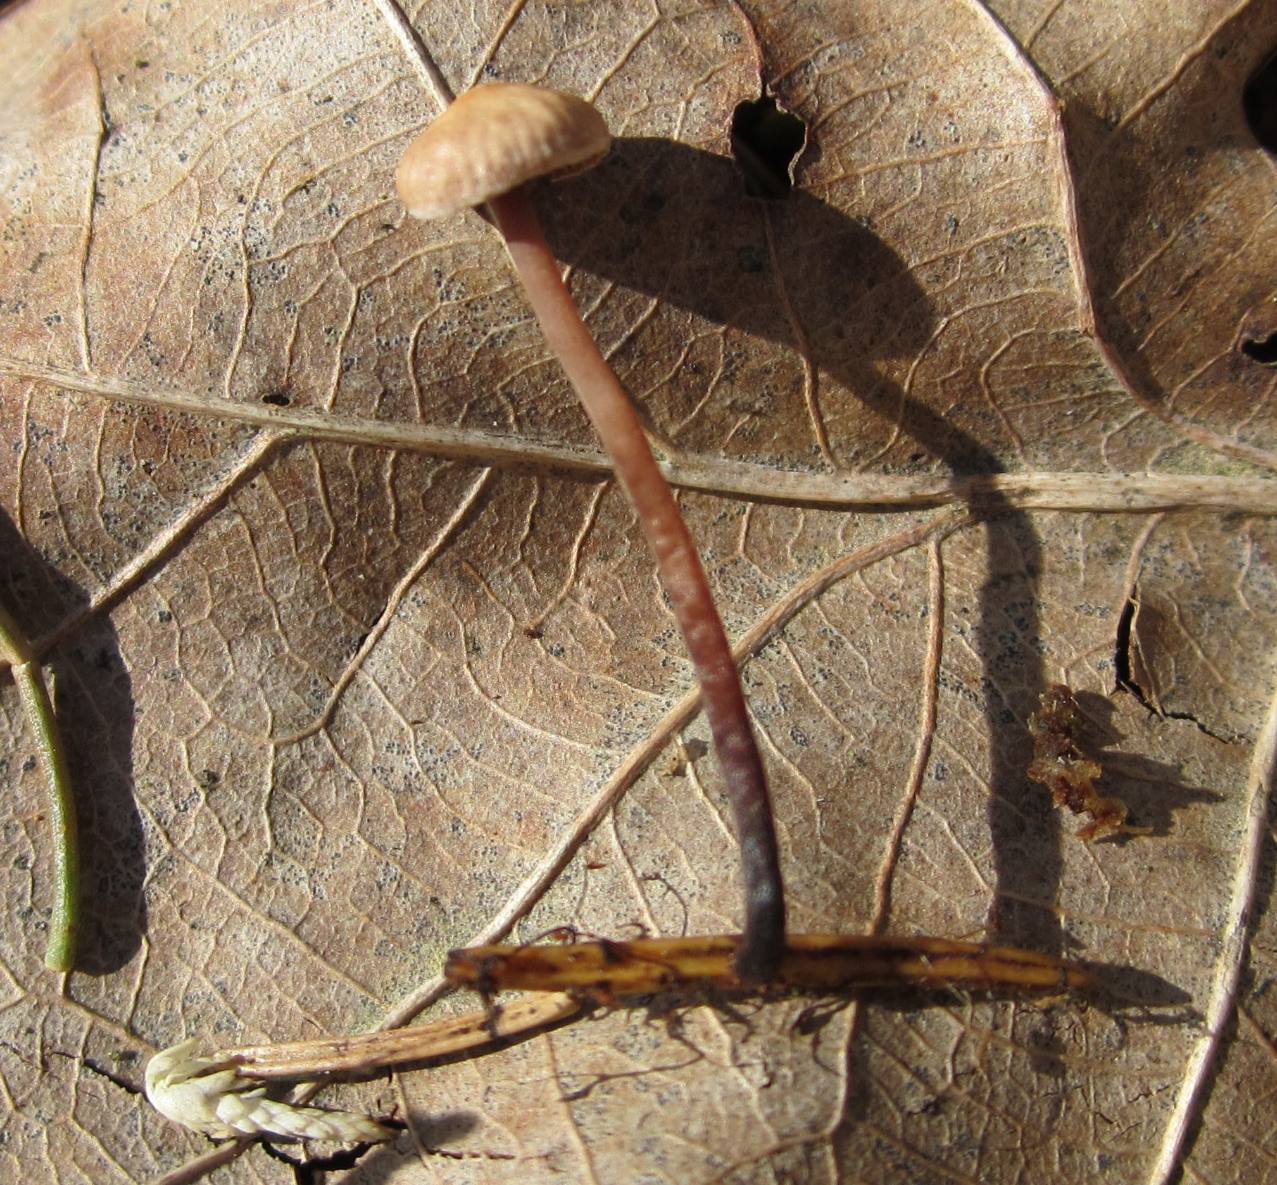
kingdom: Fungi
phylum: Basidiomycota
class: Agaricomycetes
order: Agaricales
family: Omphalotaceae
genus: Paragymnopus
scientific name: Paragymnopus perforans
